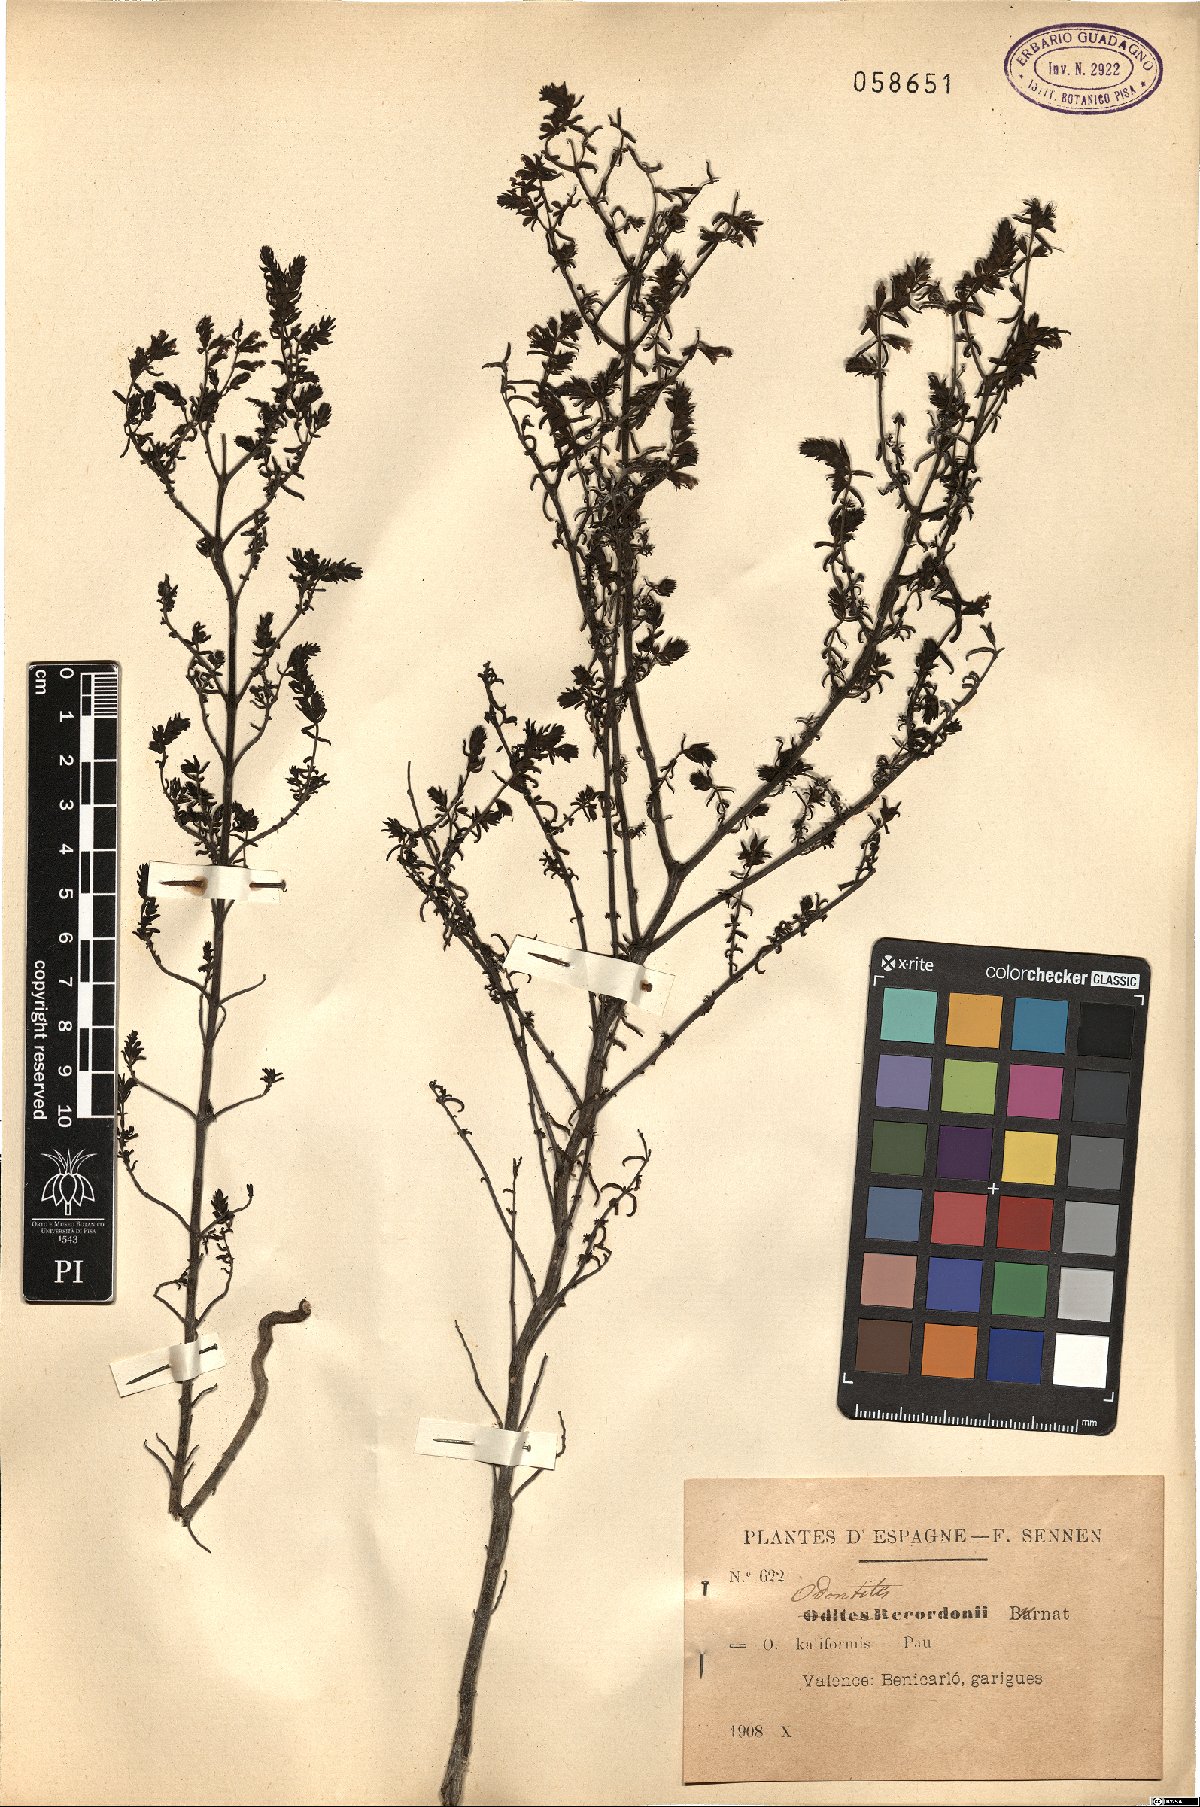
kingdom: Plantae
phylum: Tracheophyta
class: Magnoliopsida
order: Lamiales
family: Orobanchaceae
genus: Odontites
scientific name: Odontites recordonii
